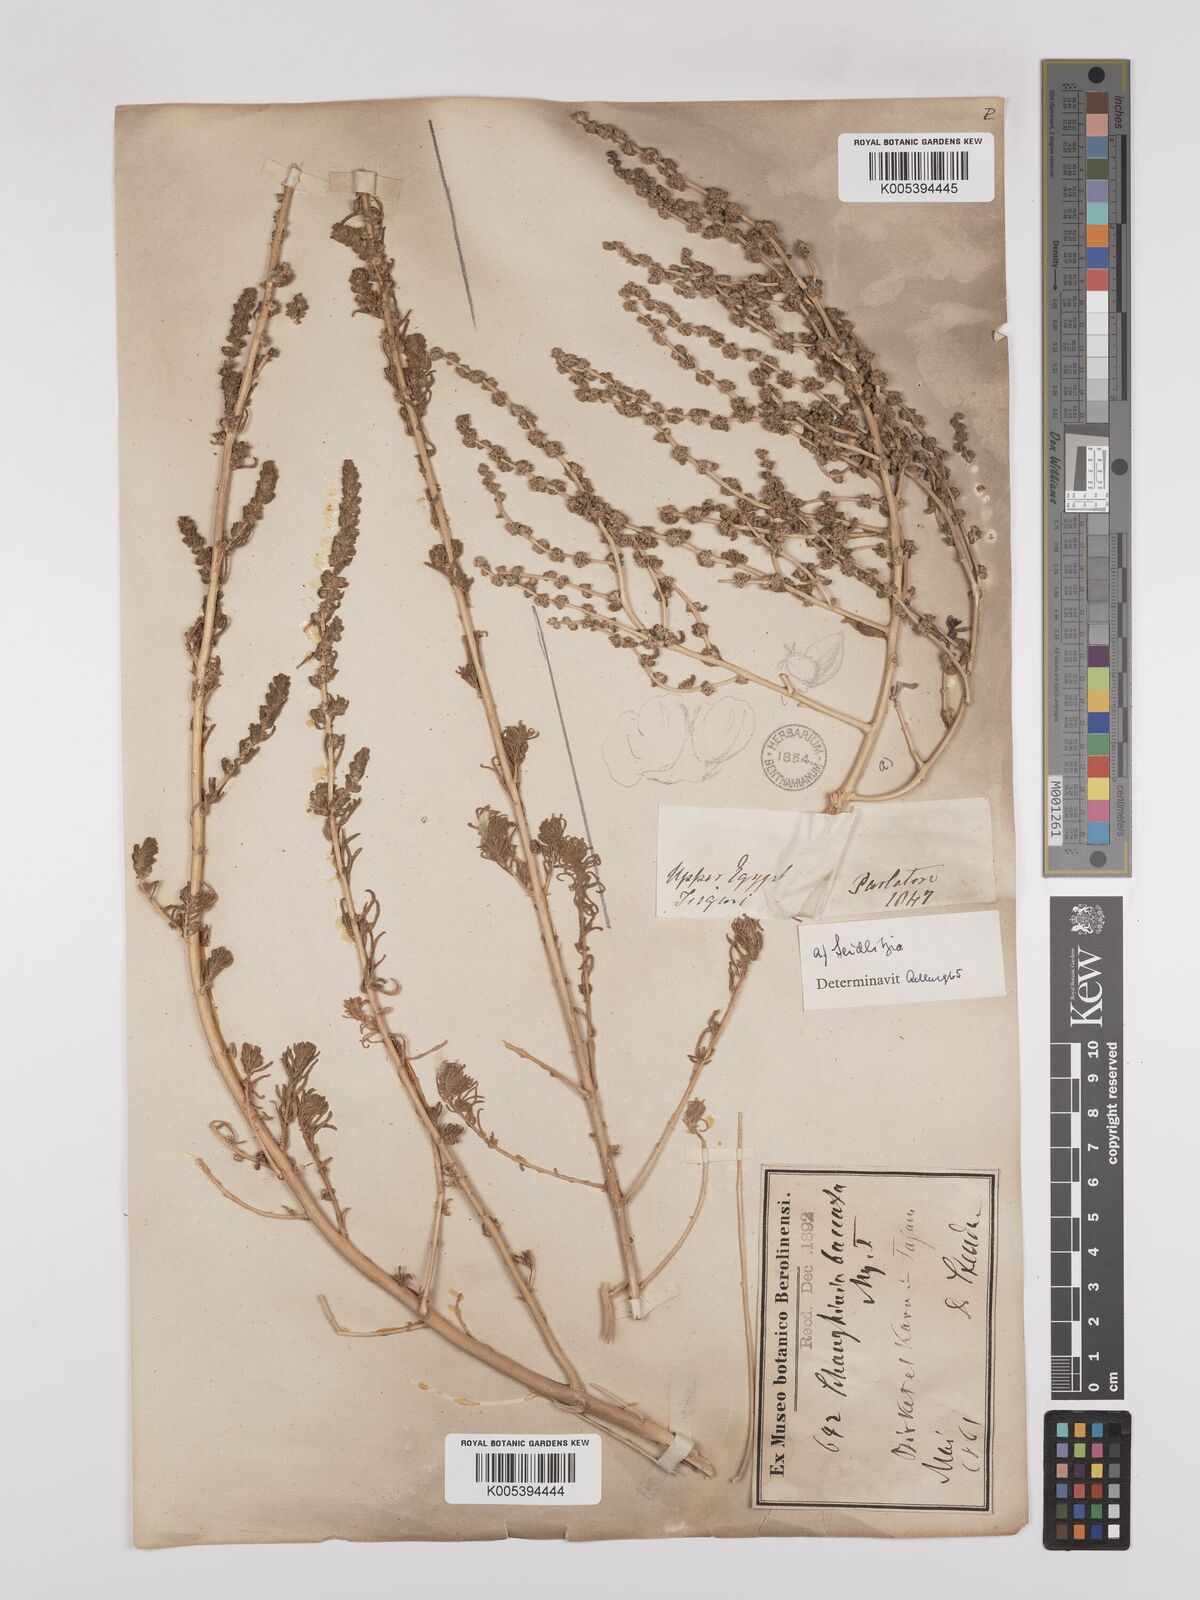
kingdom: Plantae
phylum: Tracheophyta
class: Magnoliopsida
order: Caryophyllales
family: Amaranthaceae
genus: Suaeda
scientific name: Suaeda aegyptiaca
